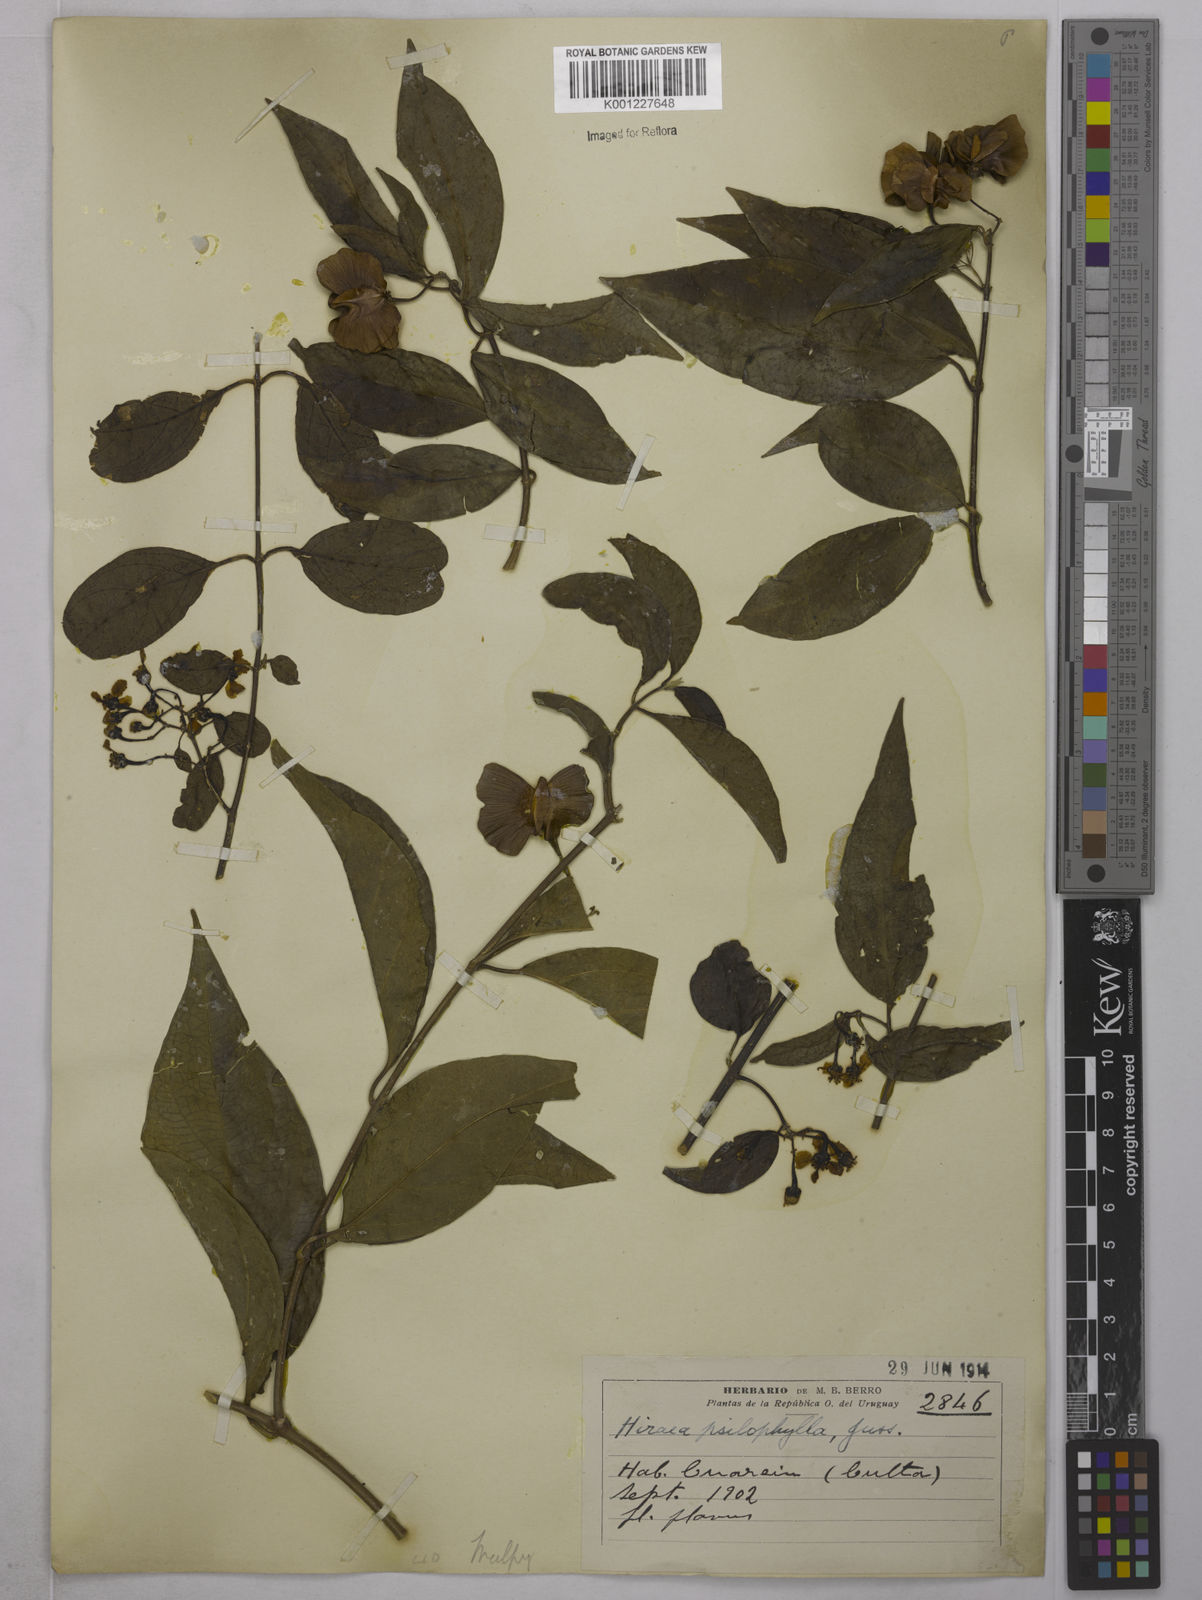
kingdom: Plantae
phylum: Tracheophyta
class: Magnoliopsida
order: Malpighiales
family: Malpighiaceae
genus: Callaeum
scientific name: Callaeum psilophyllum
